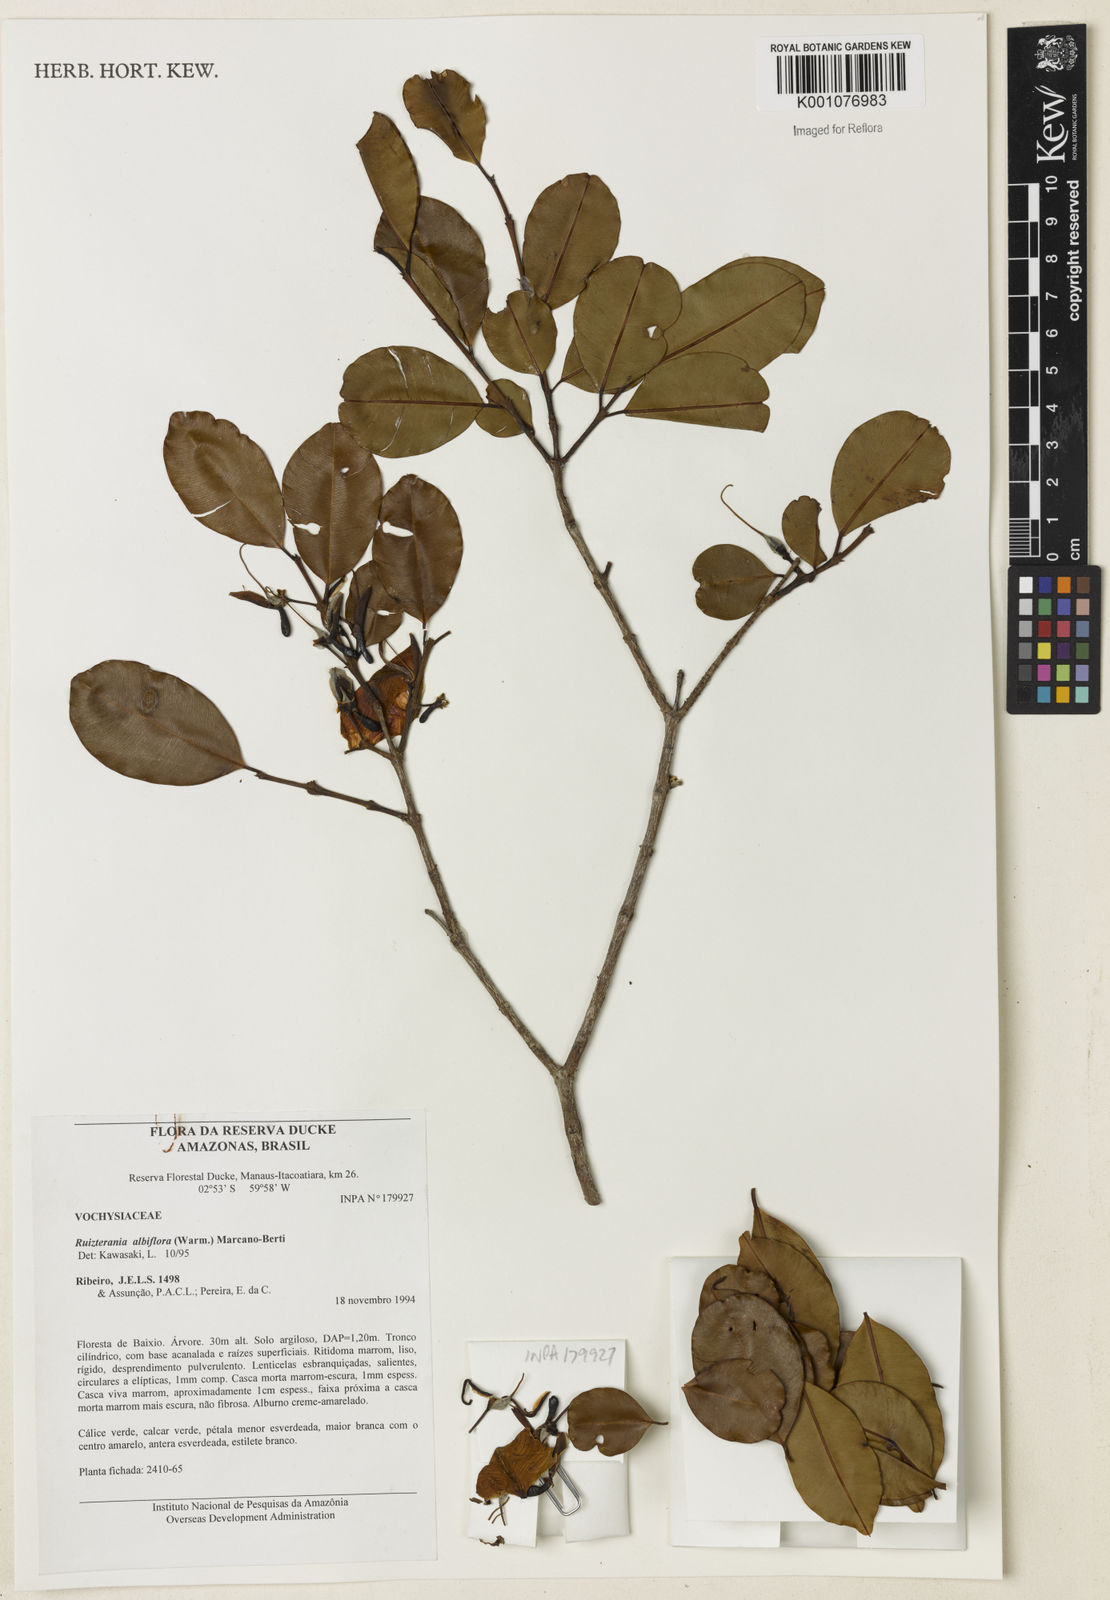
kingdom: Plantae
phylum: Tracheophyta
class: Magnoliopsida
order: Myrtales
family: Vochysiaceae
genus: Ruizterania
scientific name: Ruizterania albiflora
